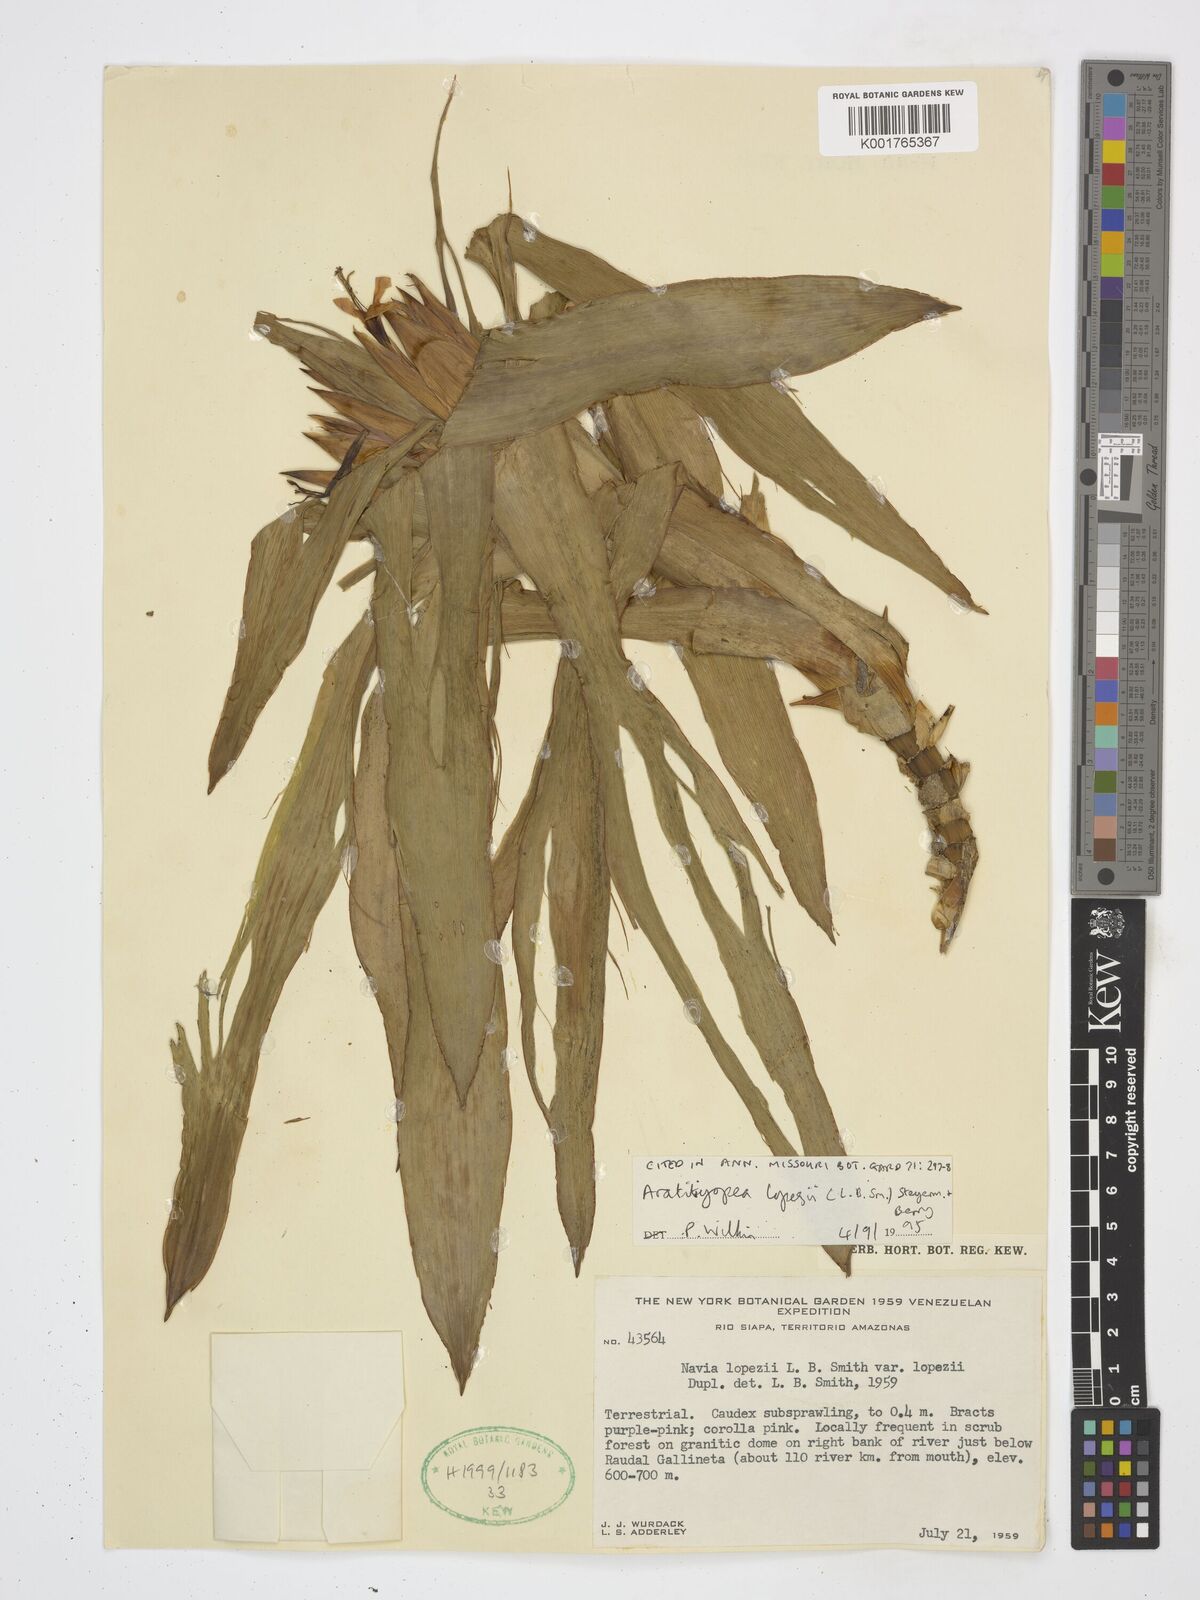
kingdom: Plantae
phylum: Tracheophyta
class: Liliopsida
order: Poales
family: Xyridaceae
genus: Aratitiyopea
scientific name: Aratitiyopea lopezii
